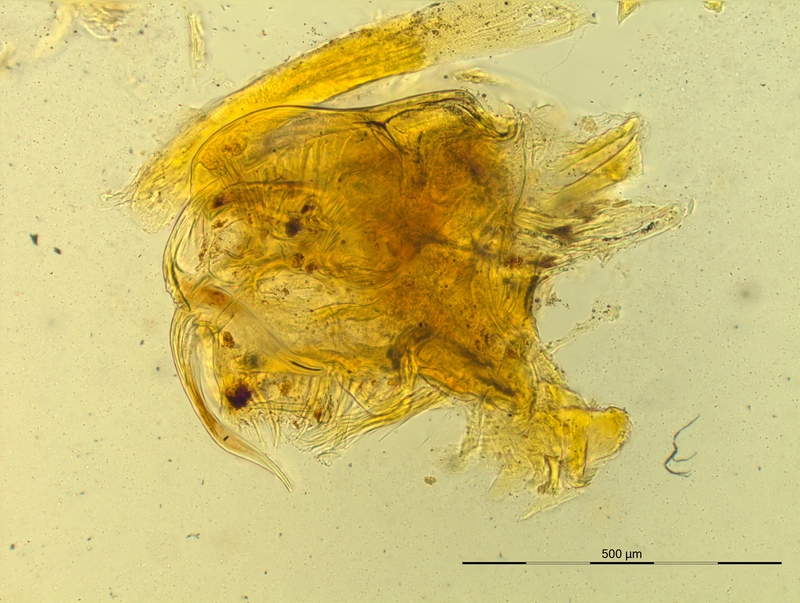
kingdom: Animalia
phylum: Arthropoda
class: Diplopoda
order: Chordeumatida
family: Craspedosomatidae
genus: Pyrgocyphosoma
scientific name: Pyrgocyphosoma tendanum
